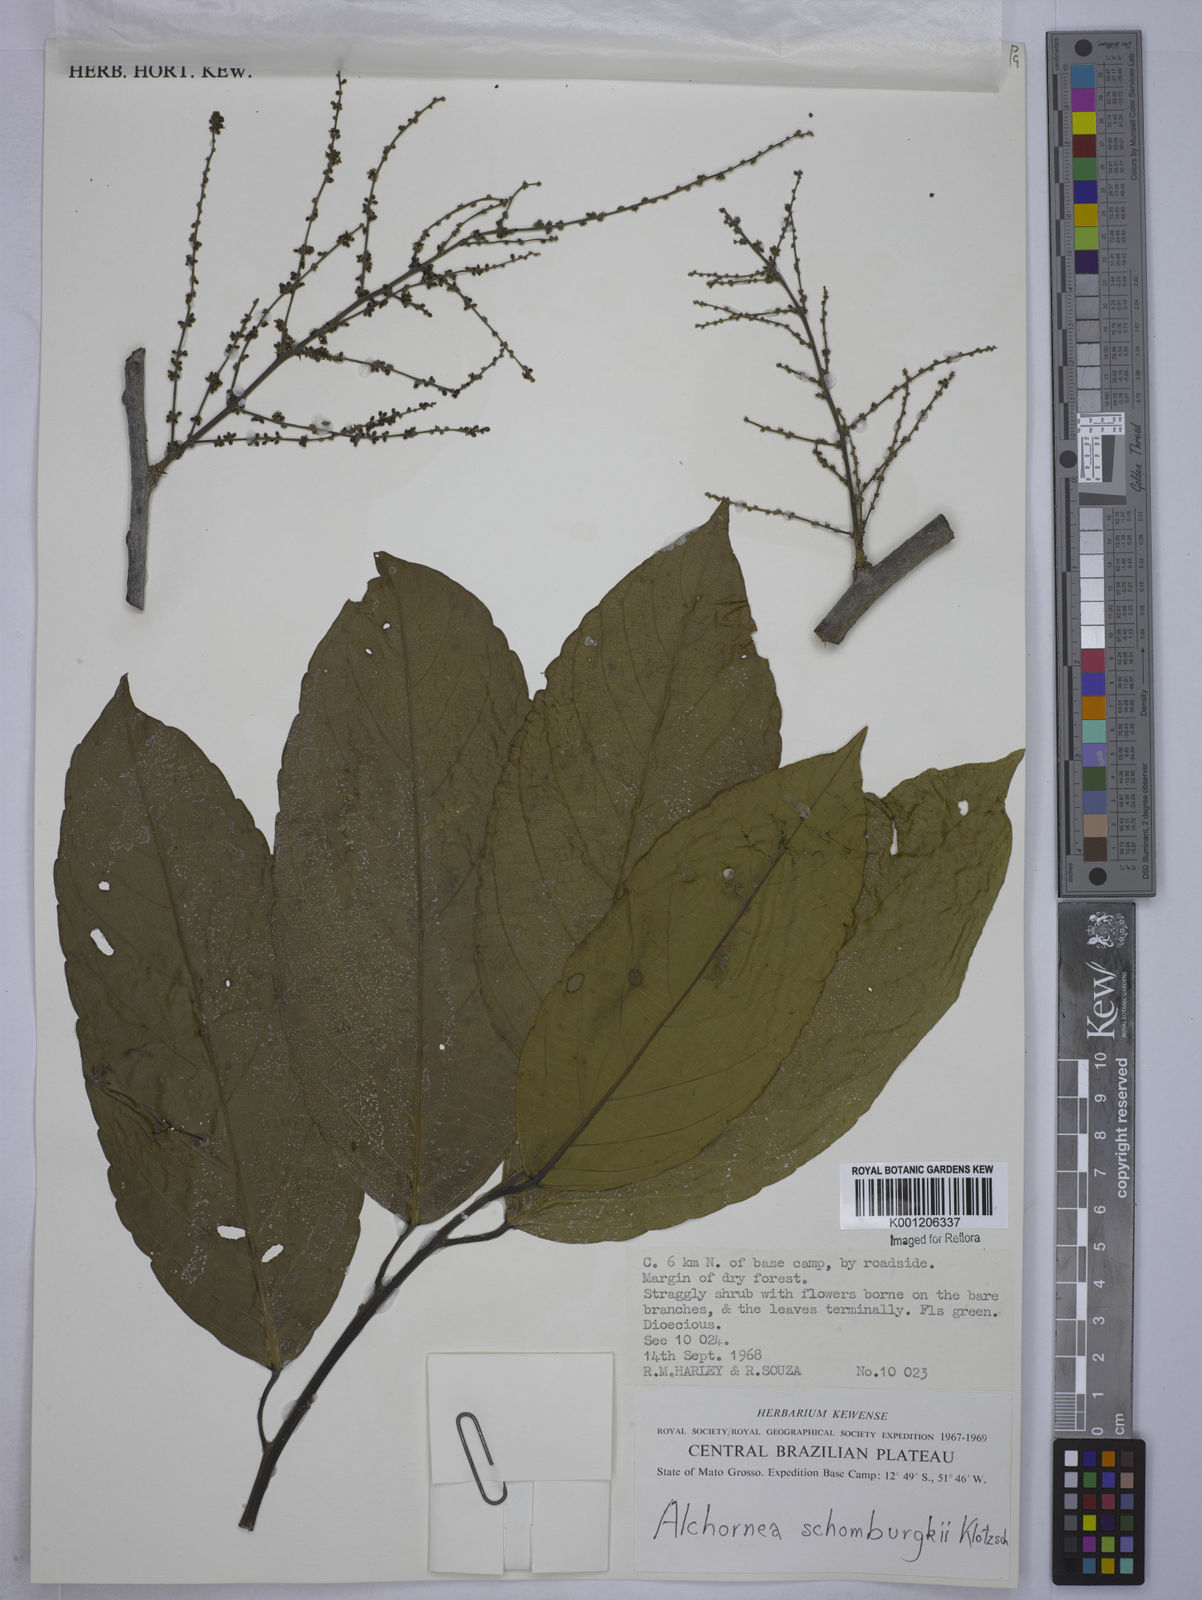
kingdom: Plantae
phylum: Tracheophyta
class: Magnoliopsida
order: Malpighiales
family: Euphorbiaceae
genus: Alchornea
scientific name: Alchornea discolor
